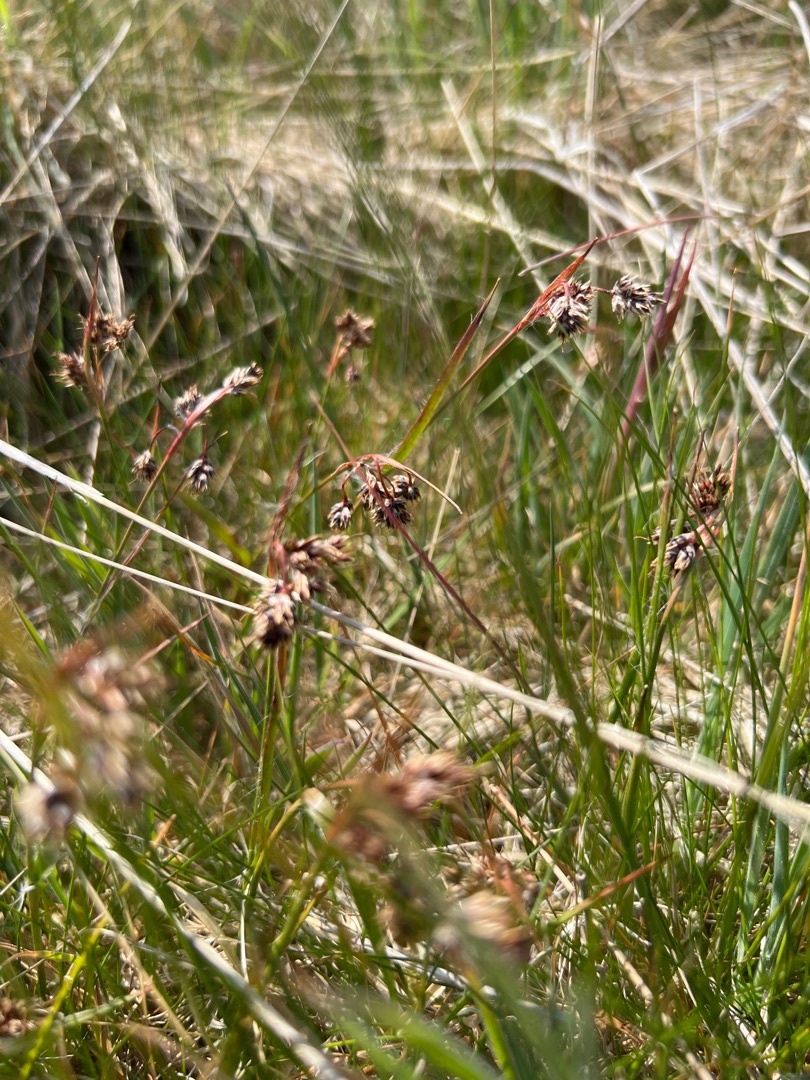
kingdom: Plantae
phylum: Tracheophyta
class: Liliopsida
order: Poales
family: Juncaceae
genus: Luzula
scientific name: Luzula campestris
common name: Mark-frytle
